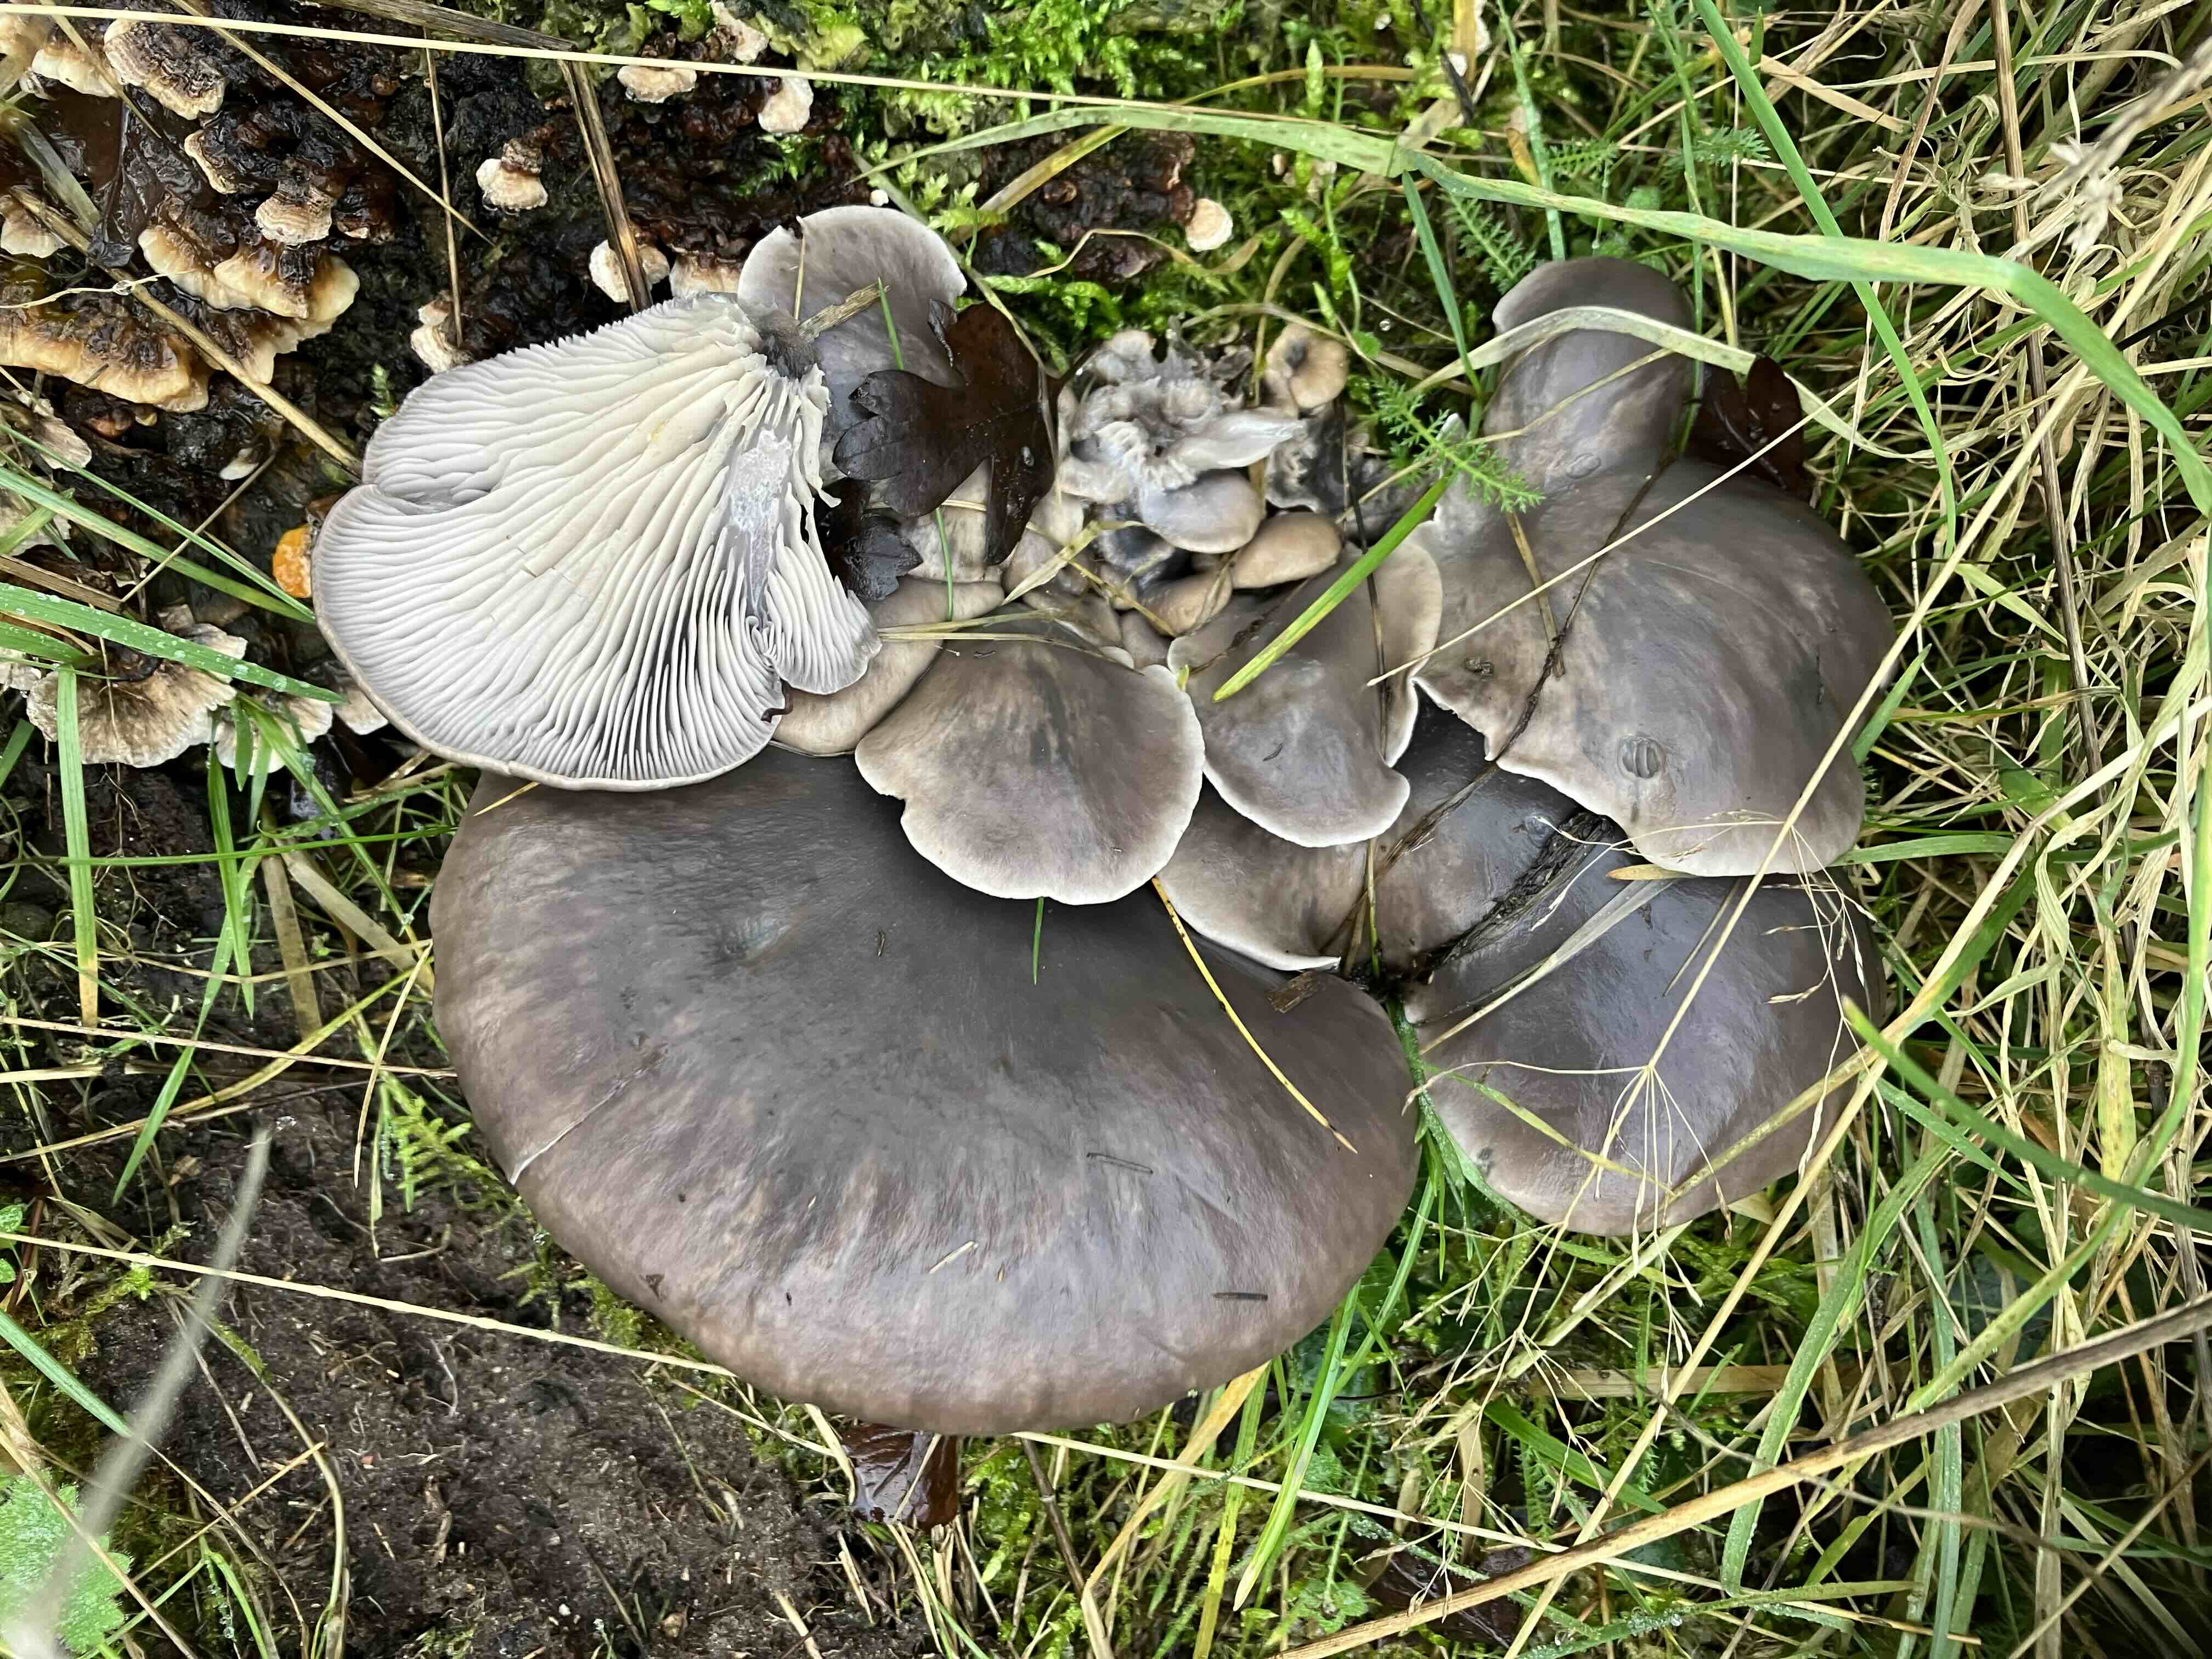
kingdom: Fungi
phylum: Basidiomycota
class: Agaricomycetes
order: Agaricales
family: Pleurotaceae
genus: Pleurotus
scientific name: Pleurotus ostreatus
